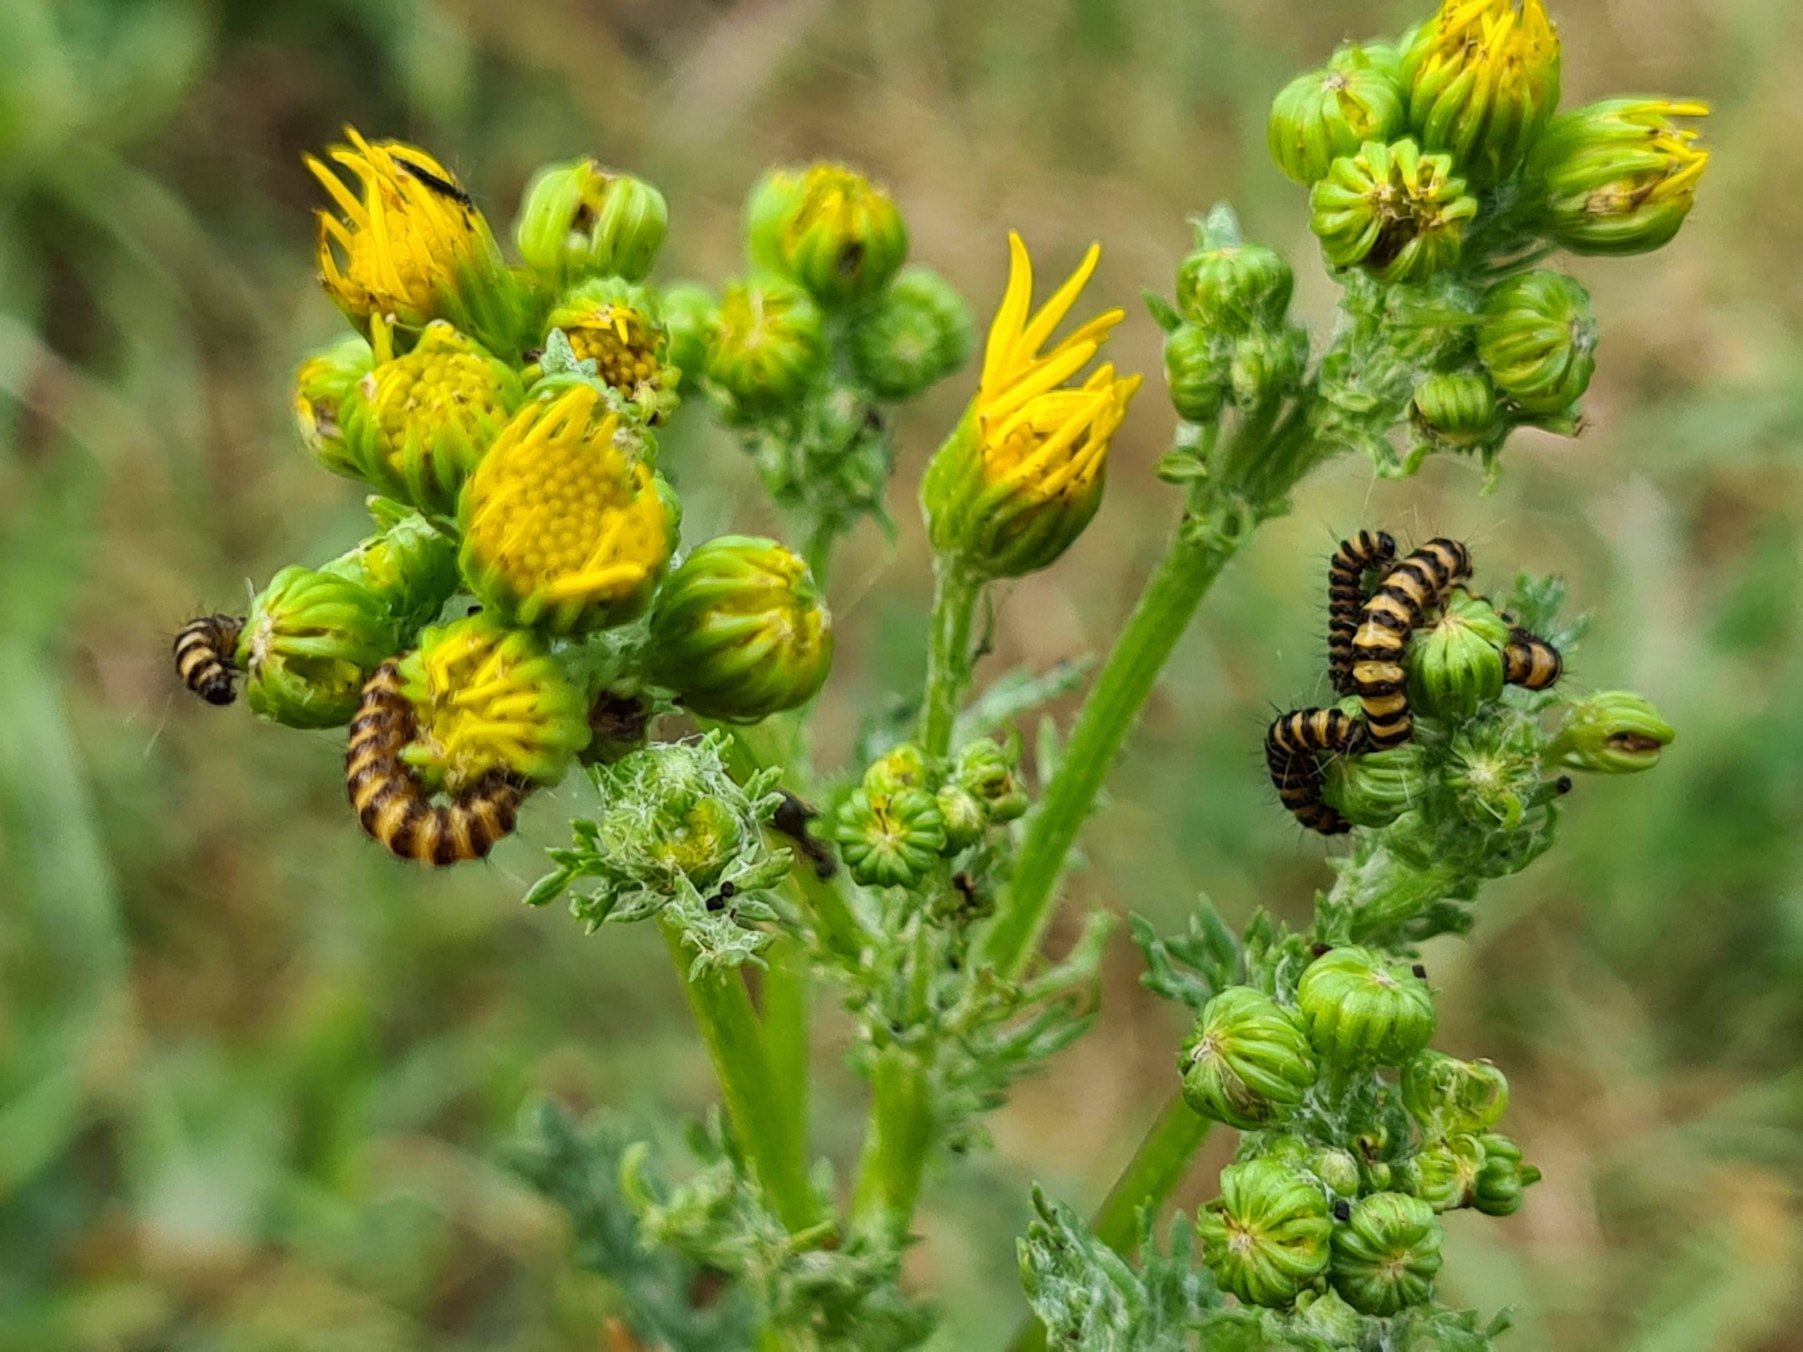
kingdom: Animalia
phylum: Arthropoda
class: Insecta
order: Lepidoptera
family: Erebidae
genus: Tyria
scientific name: Tyria jacobaeae
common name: Blodplet
